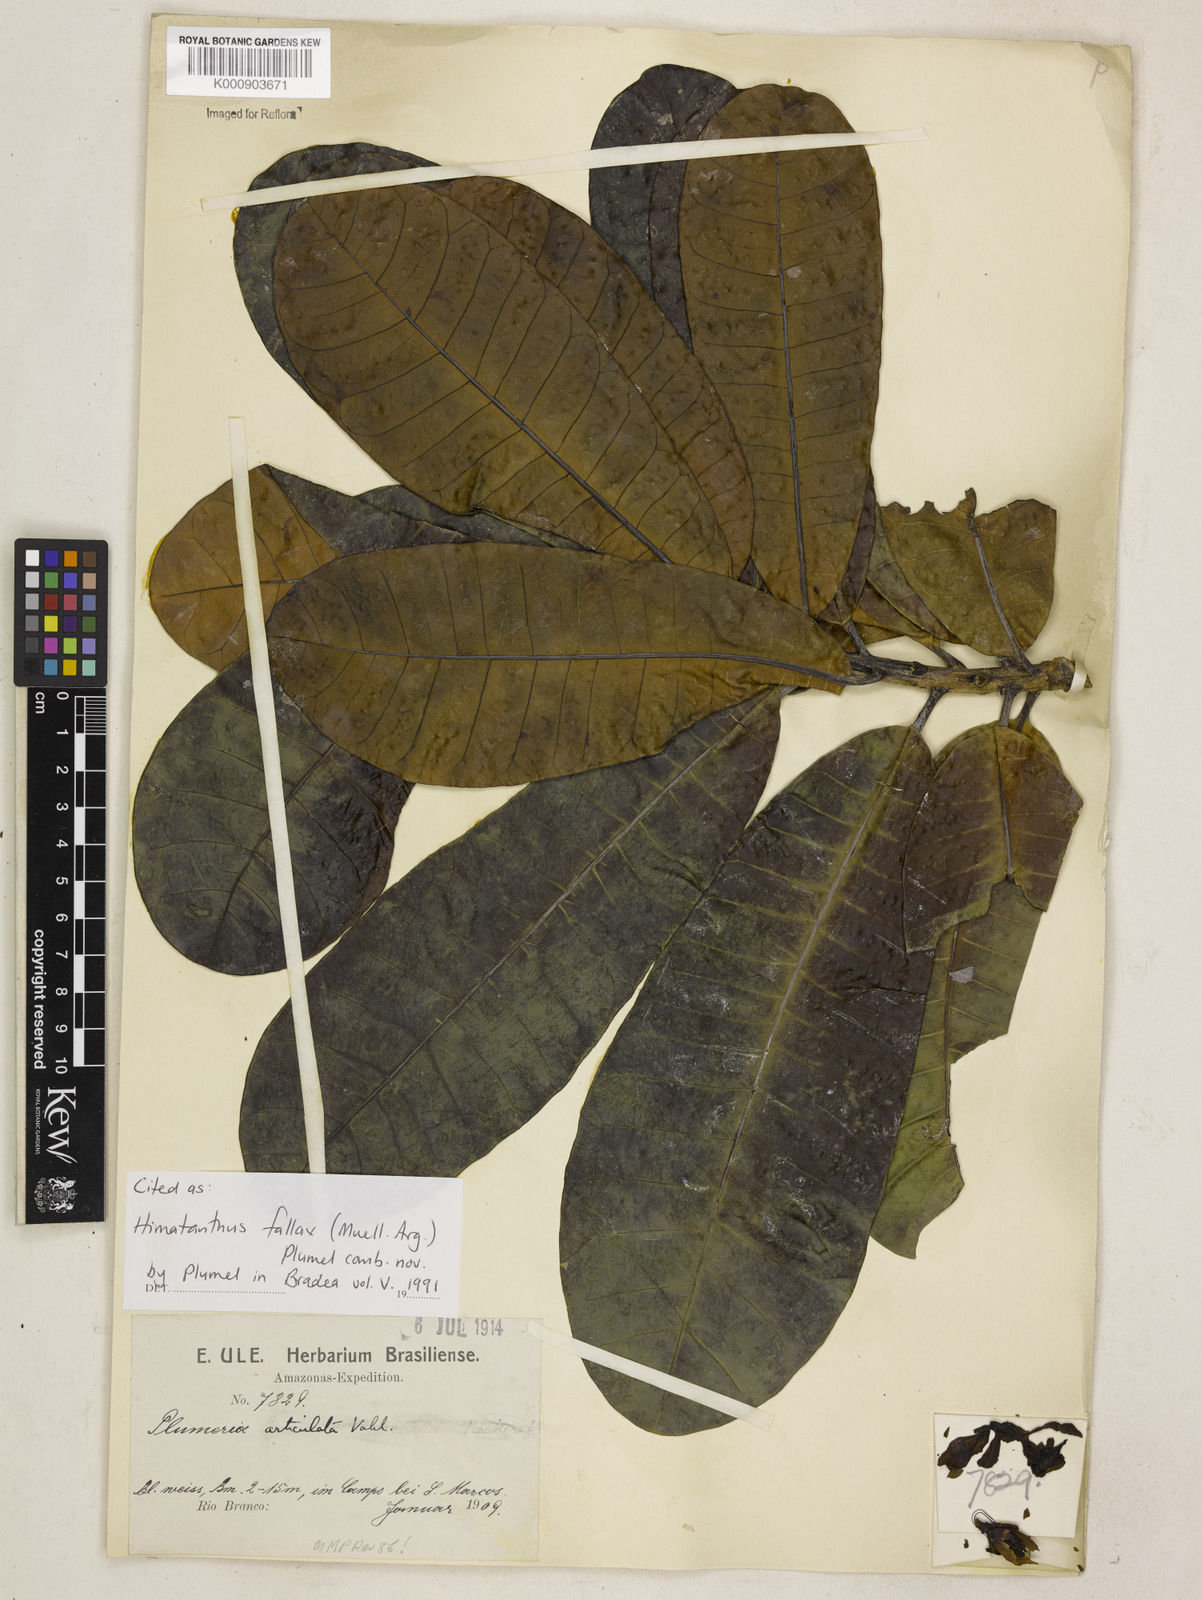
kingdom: Plantae
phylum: Tracheophyta
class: Magnoliopsida
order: Gentianales
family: Apocynaceae
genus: Himatanthus
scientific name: Himatanthus
